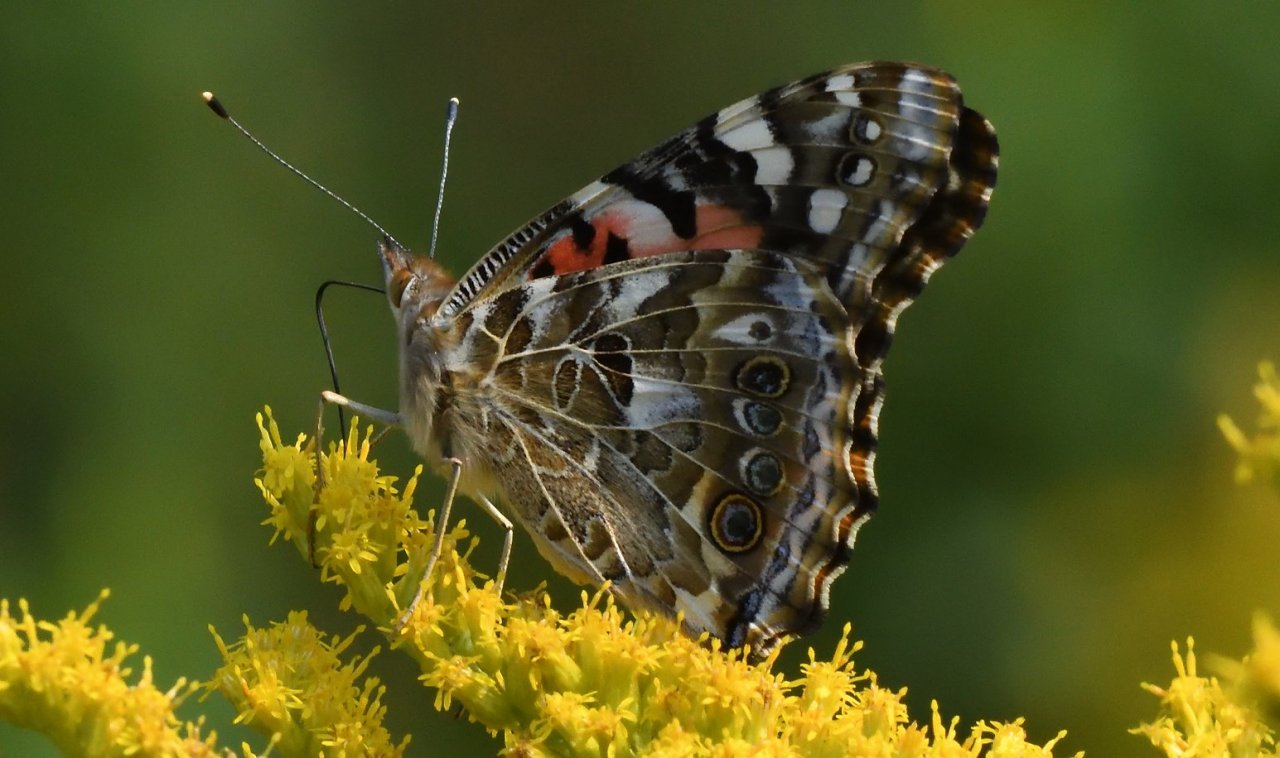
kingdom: Animalia
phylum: Arthropoda
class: Insecta
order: Lepidoptera
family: Nymphalidae
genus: Vanessa
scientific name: Vanessa cardui
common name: Painted Lady
